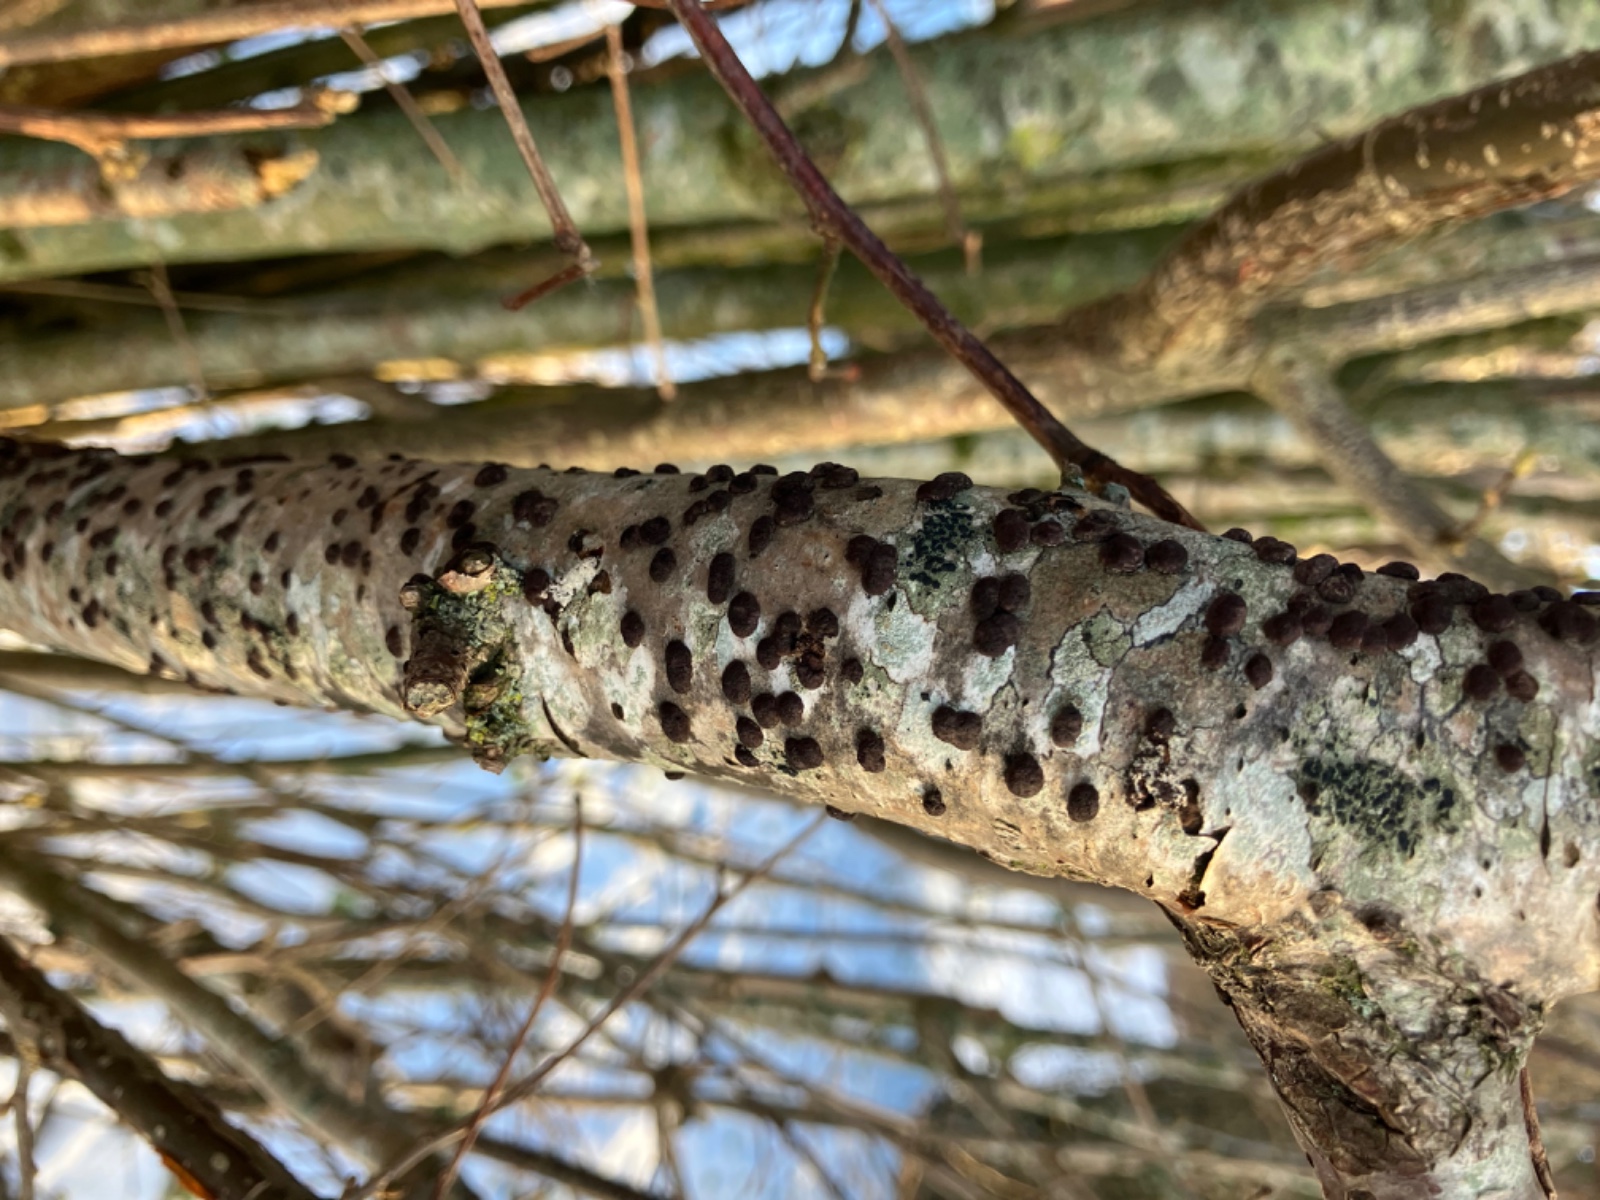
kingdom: Fungi
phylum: Ascomycota
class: Sordariomycetes
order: Xylariales
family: Hypoxylaceae
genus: Hypoxylon
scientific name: Hypoxylon fuscum
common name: kegleformet kulbær
